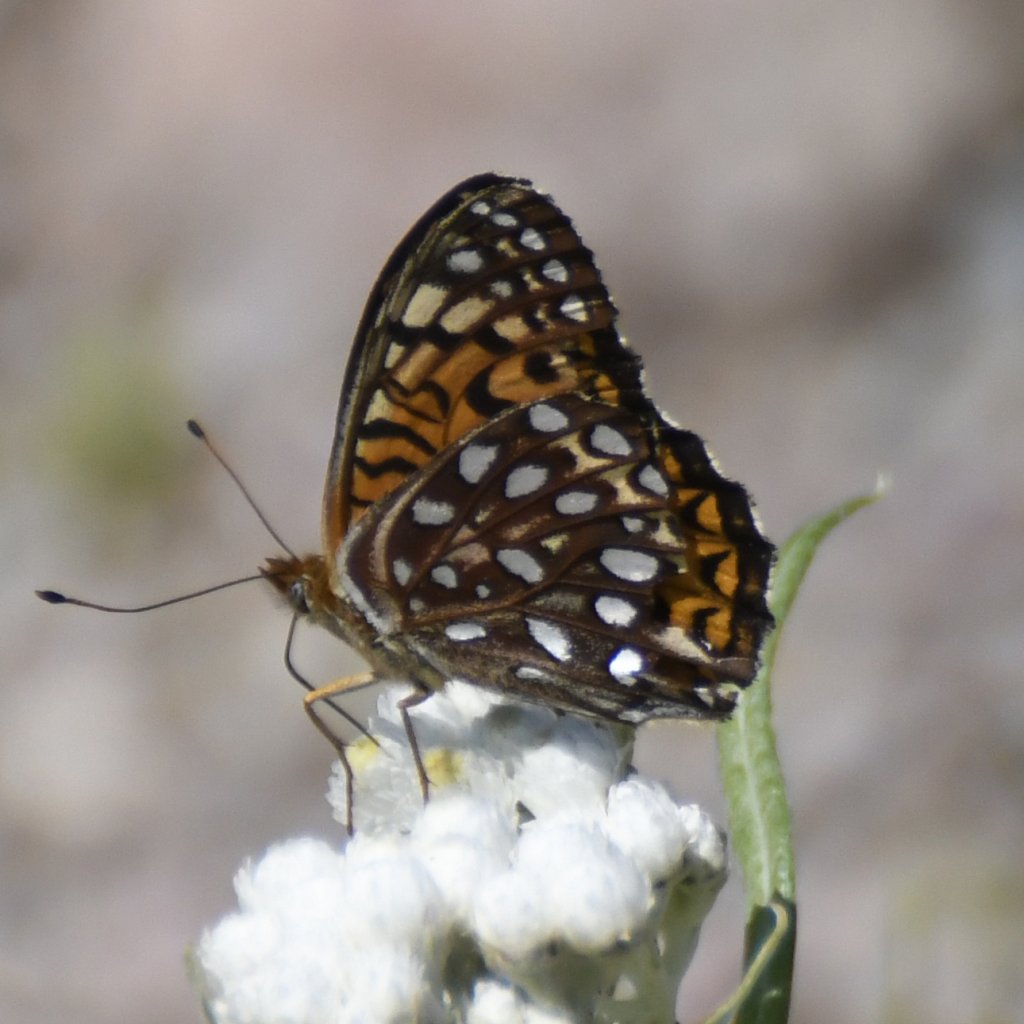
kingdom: Animalia
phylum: Arthropoda
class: Insecta
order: Lepidoptera
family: Nymphalidae
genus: Speyeria
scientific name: Speyeria atlantis
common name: Atlantis Fritillary
